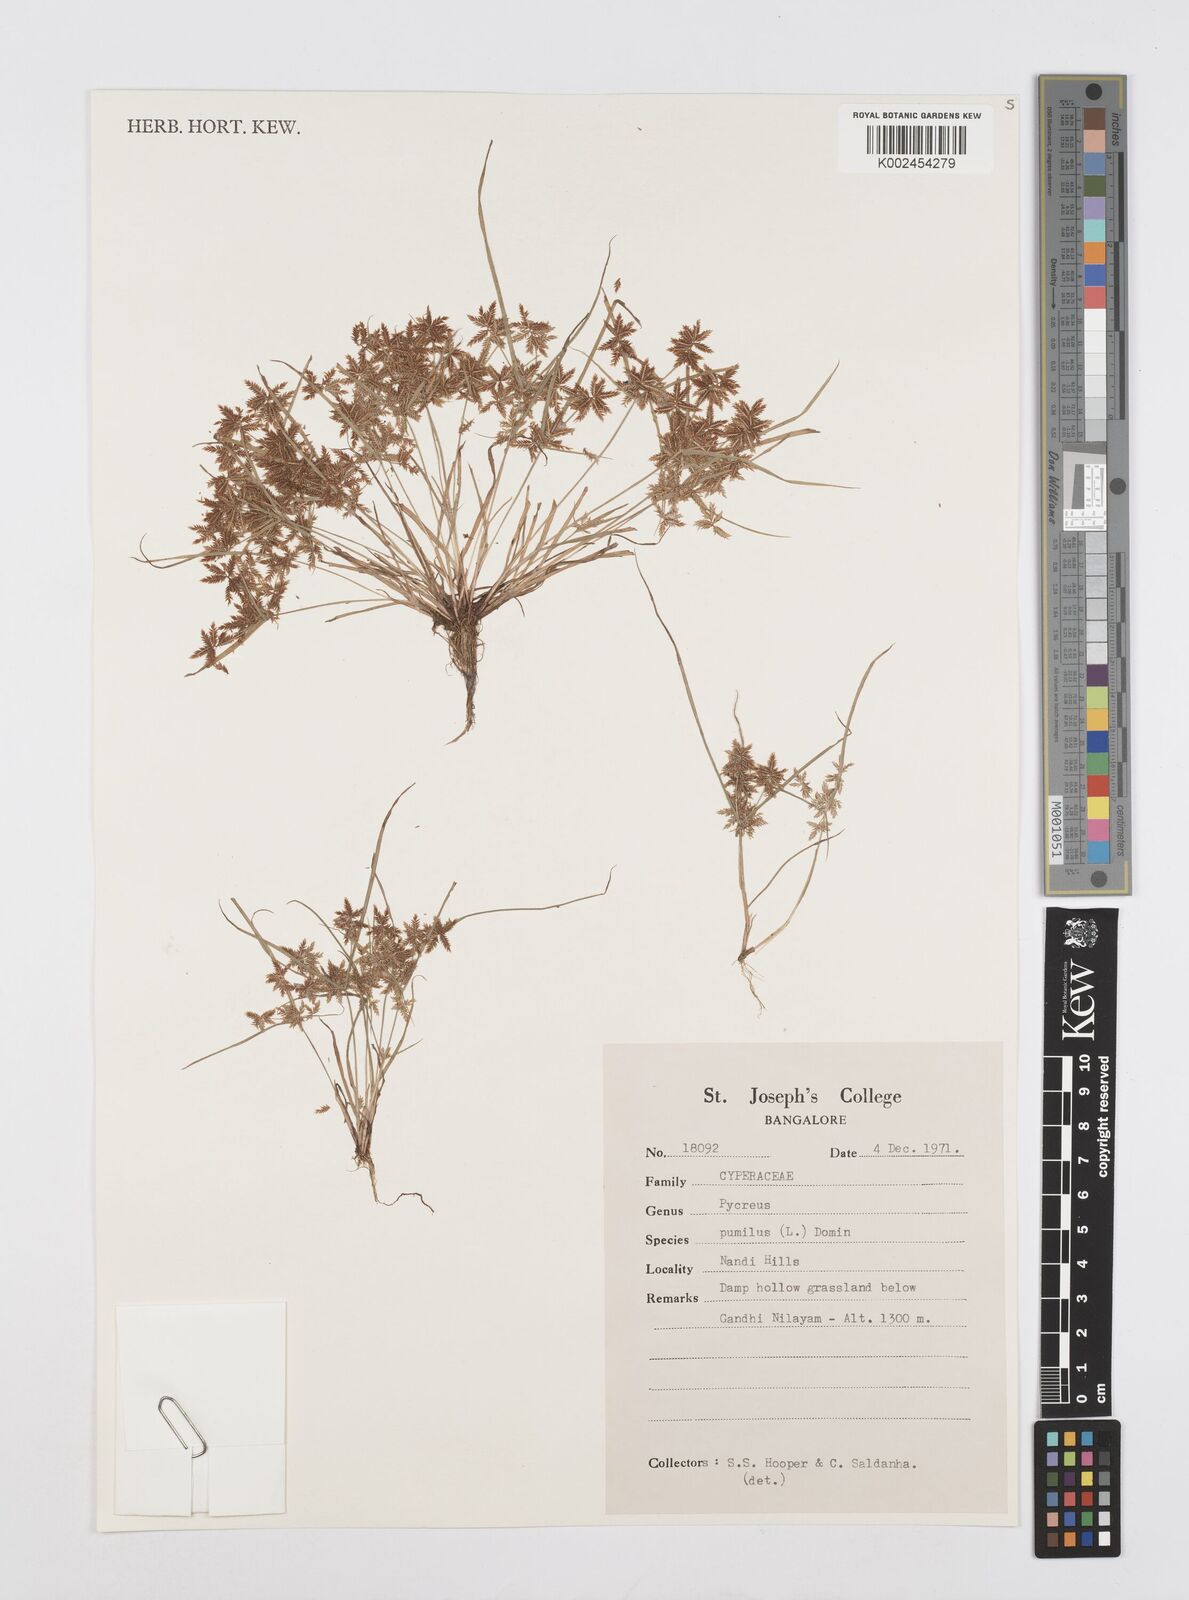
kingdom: Plantae
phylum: Tracheophyta
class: Liliopsida
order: Poales
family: Cyperaceae
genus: Cyperus
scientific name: Cyperus pumilus
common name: Low flatsedge
